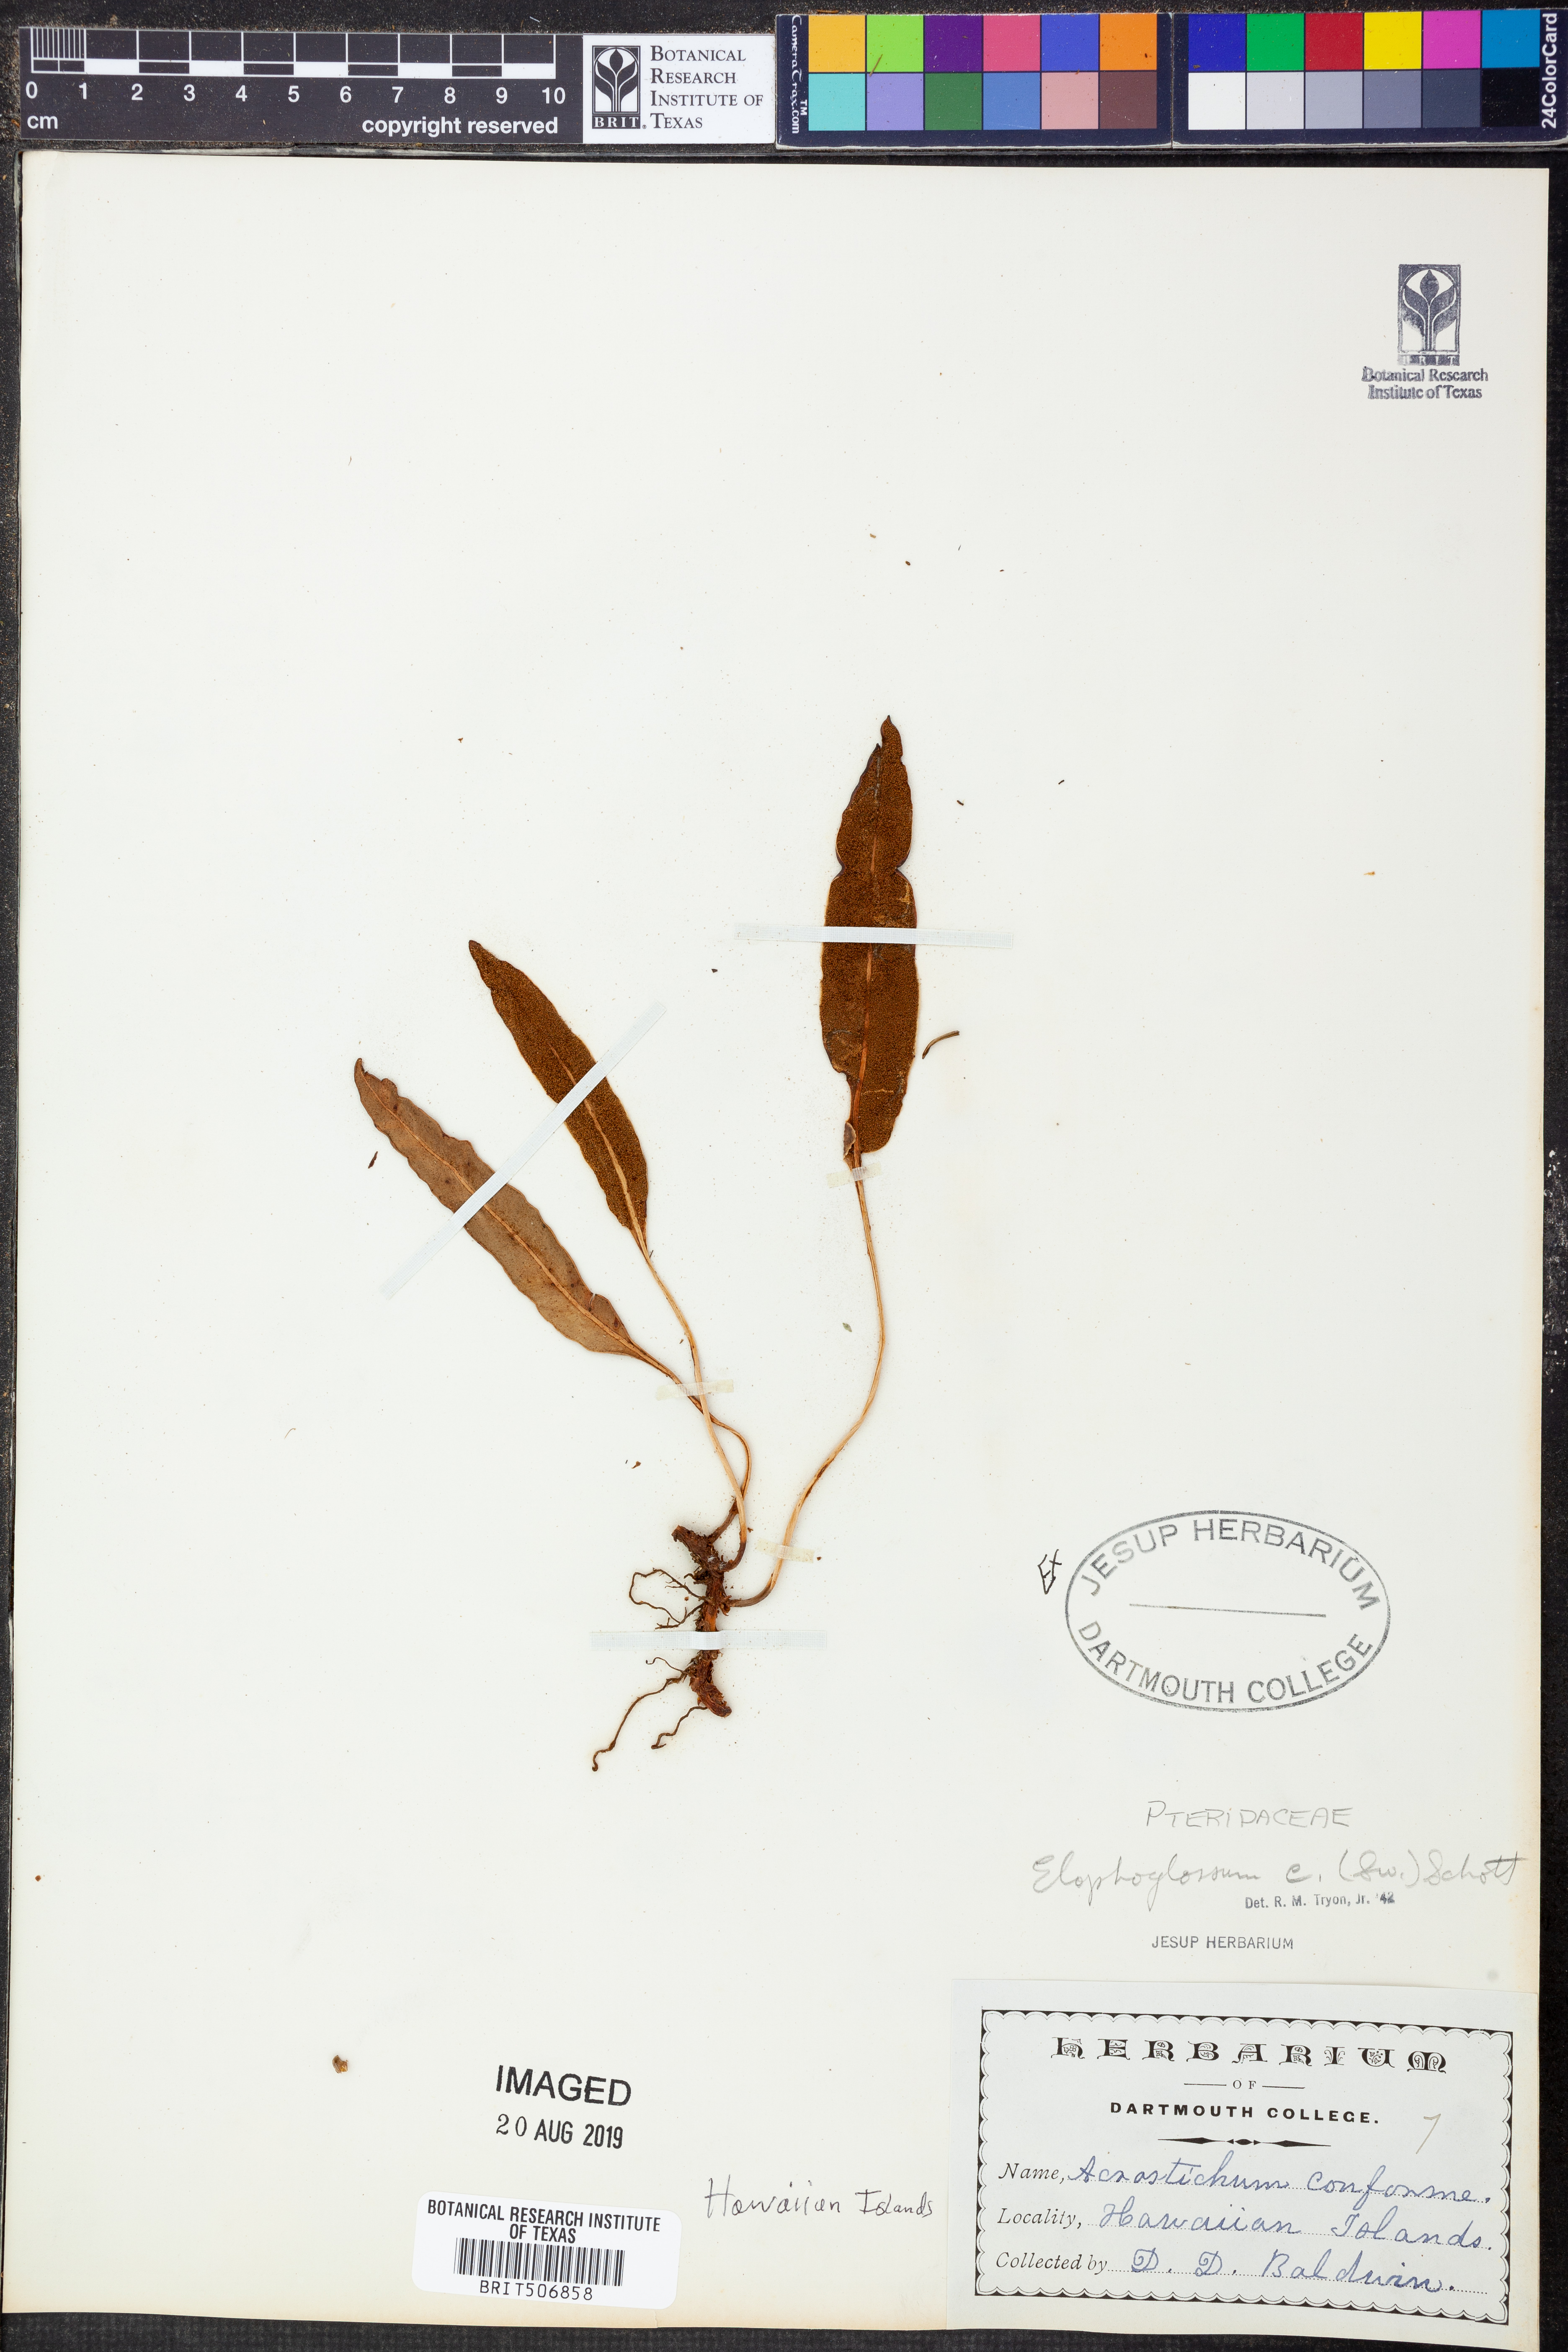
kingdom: Plantae
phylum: Tracheophyta
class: Polypodiopsida
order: Polypodiales
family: Dryopteridaceae
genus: Elaphoglossum
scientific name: Elaphoglossum conforme
